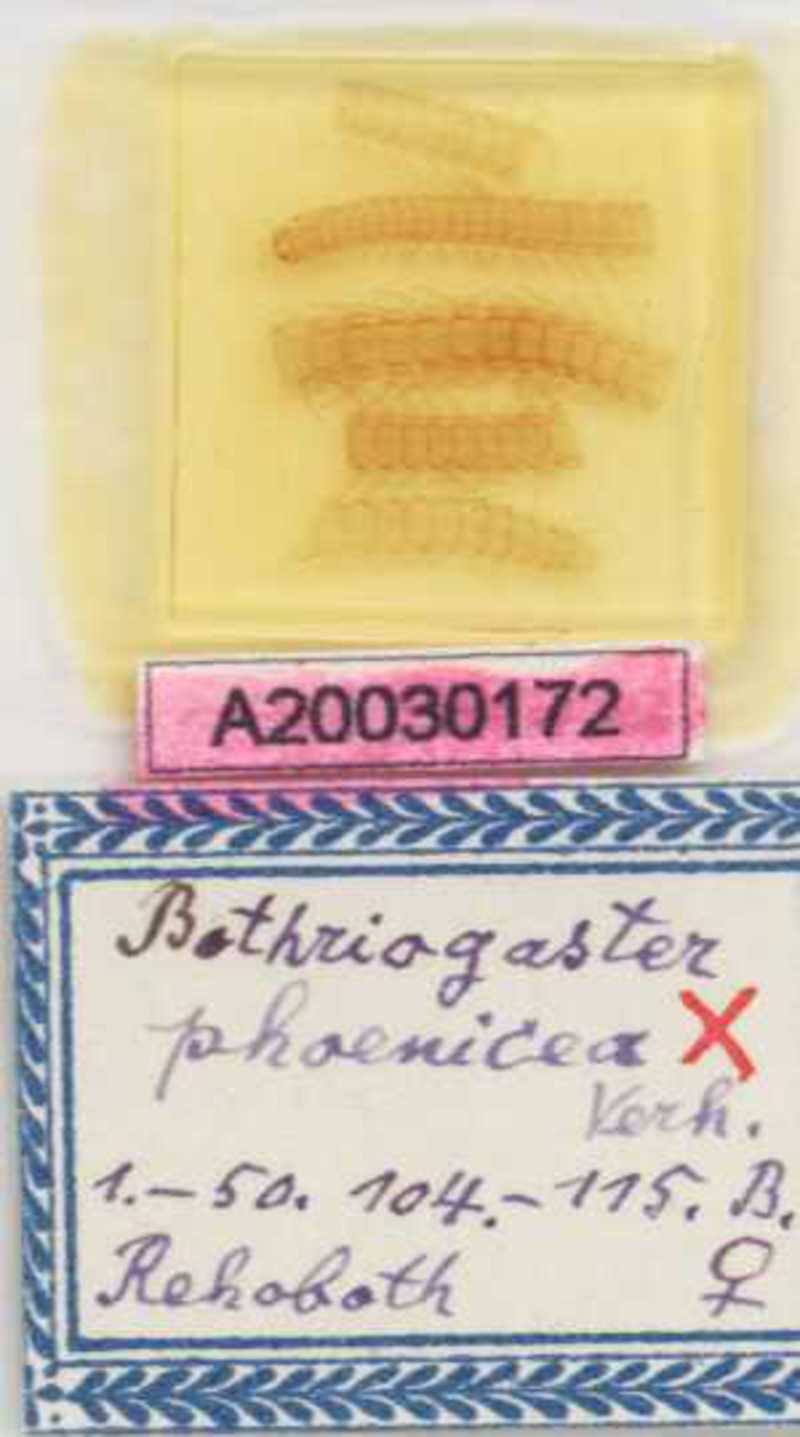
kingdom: Animalia
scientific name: Animalia
